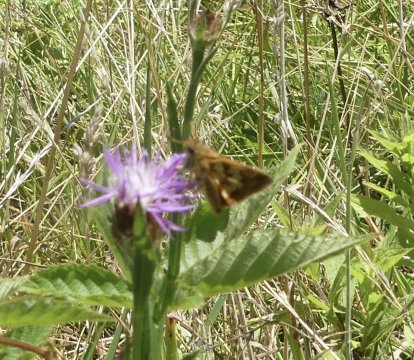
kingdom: Animalia
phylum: Arthropoda
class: Insecta
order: Lepidoptera
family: Hesperiidae
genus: Polites
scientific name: Polites coras
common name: Peck's Skipper
